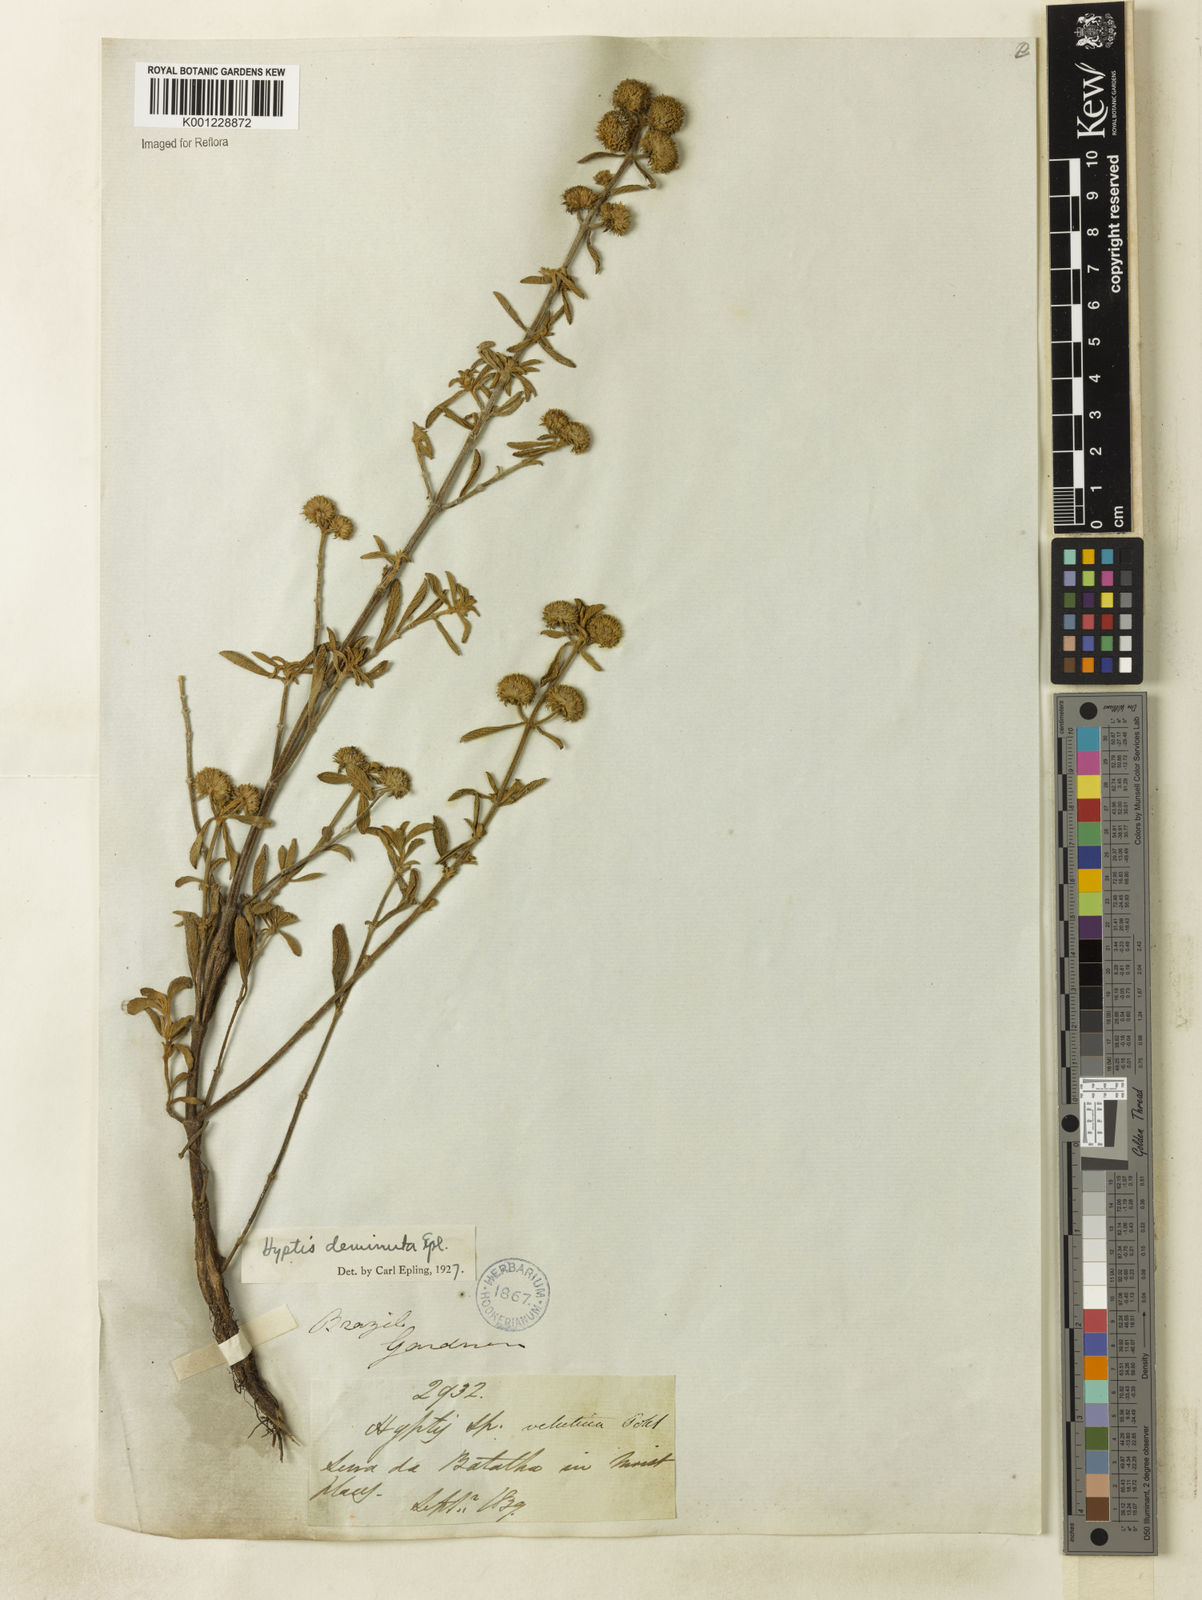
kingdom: Plantae
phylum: Tracheophyta
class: Magnoliopsida
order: Lamiales
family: Lamiaceae
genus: Hyptis
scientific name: Hyptis velutina
